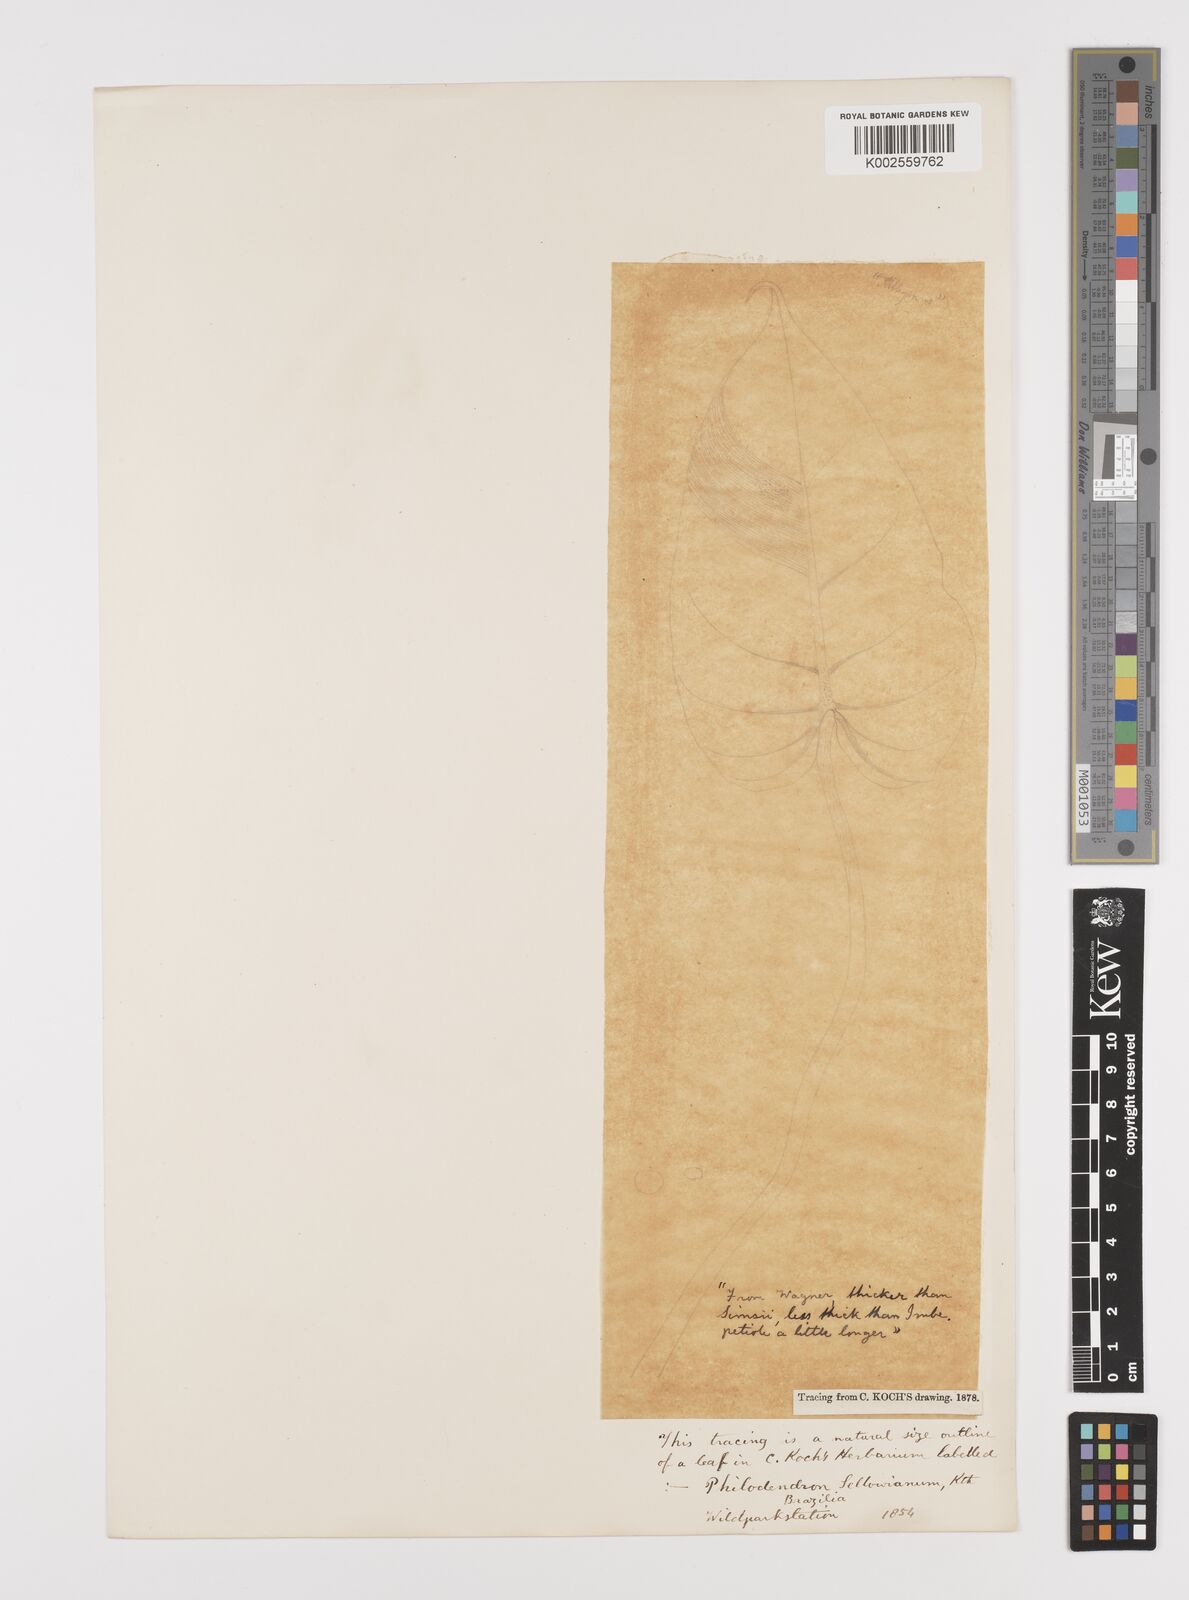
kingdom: Plantae
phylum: Tracheophyta
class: Liliopsida
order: Alismatales
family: Araceae
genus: Philodendron
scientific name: Philodendron latifolium
